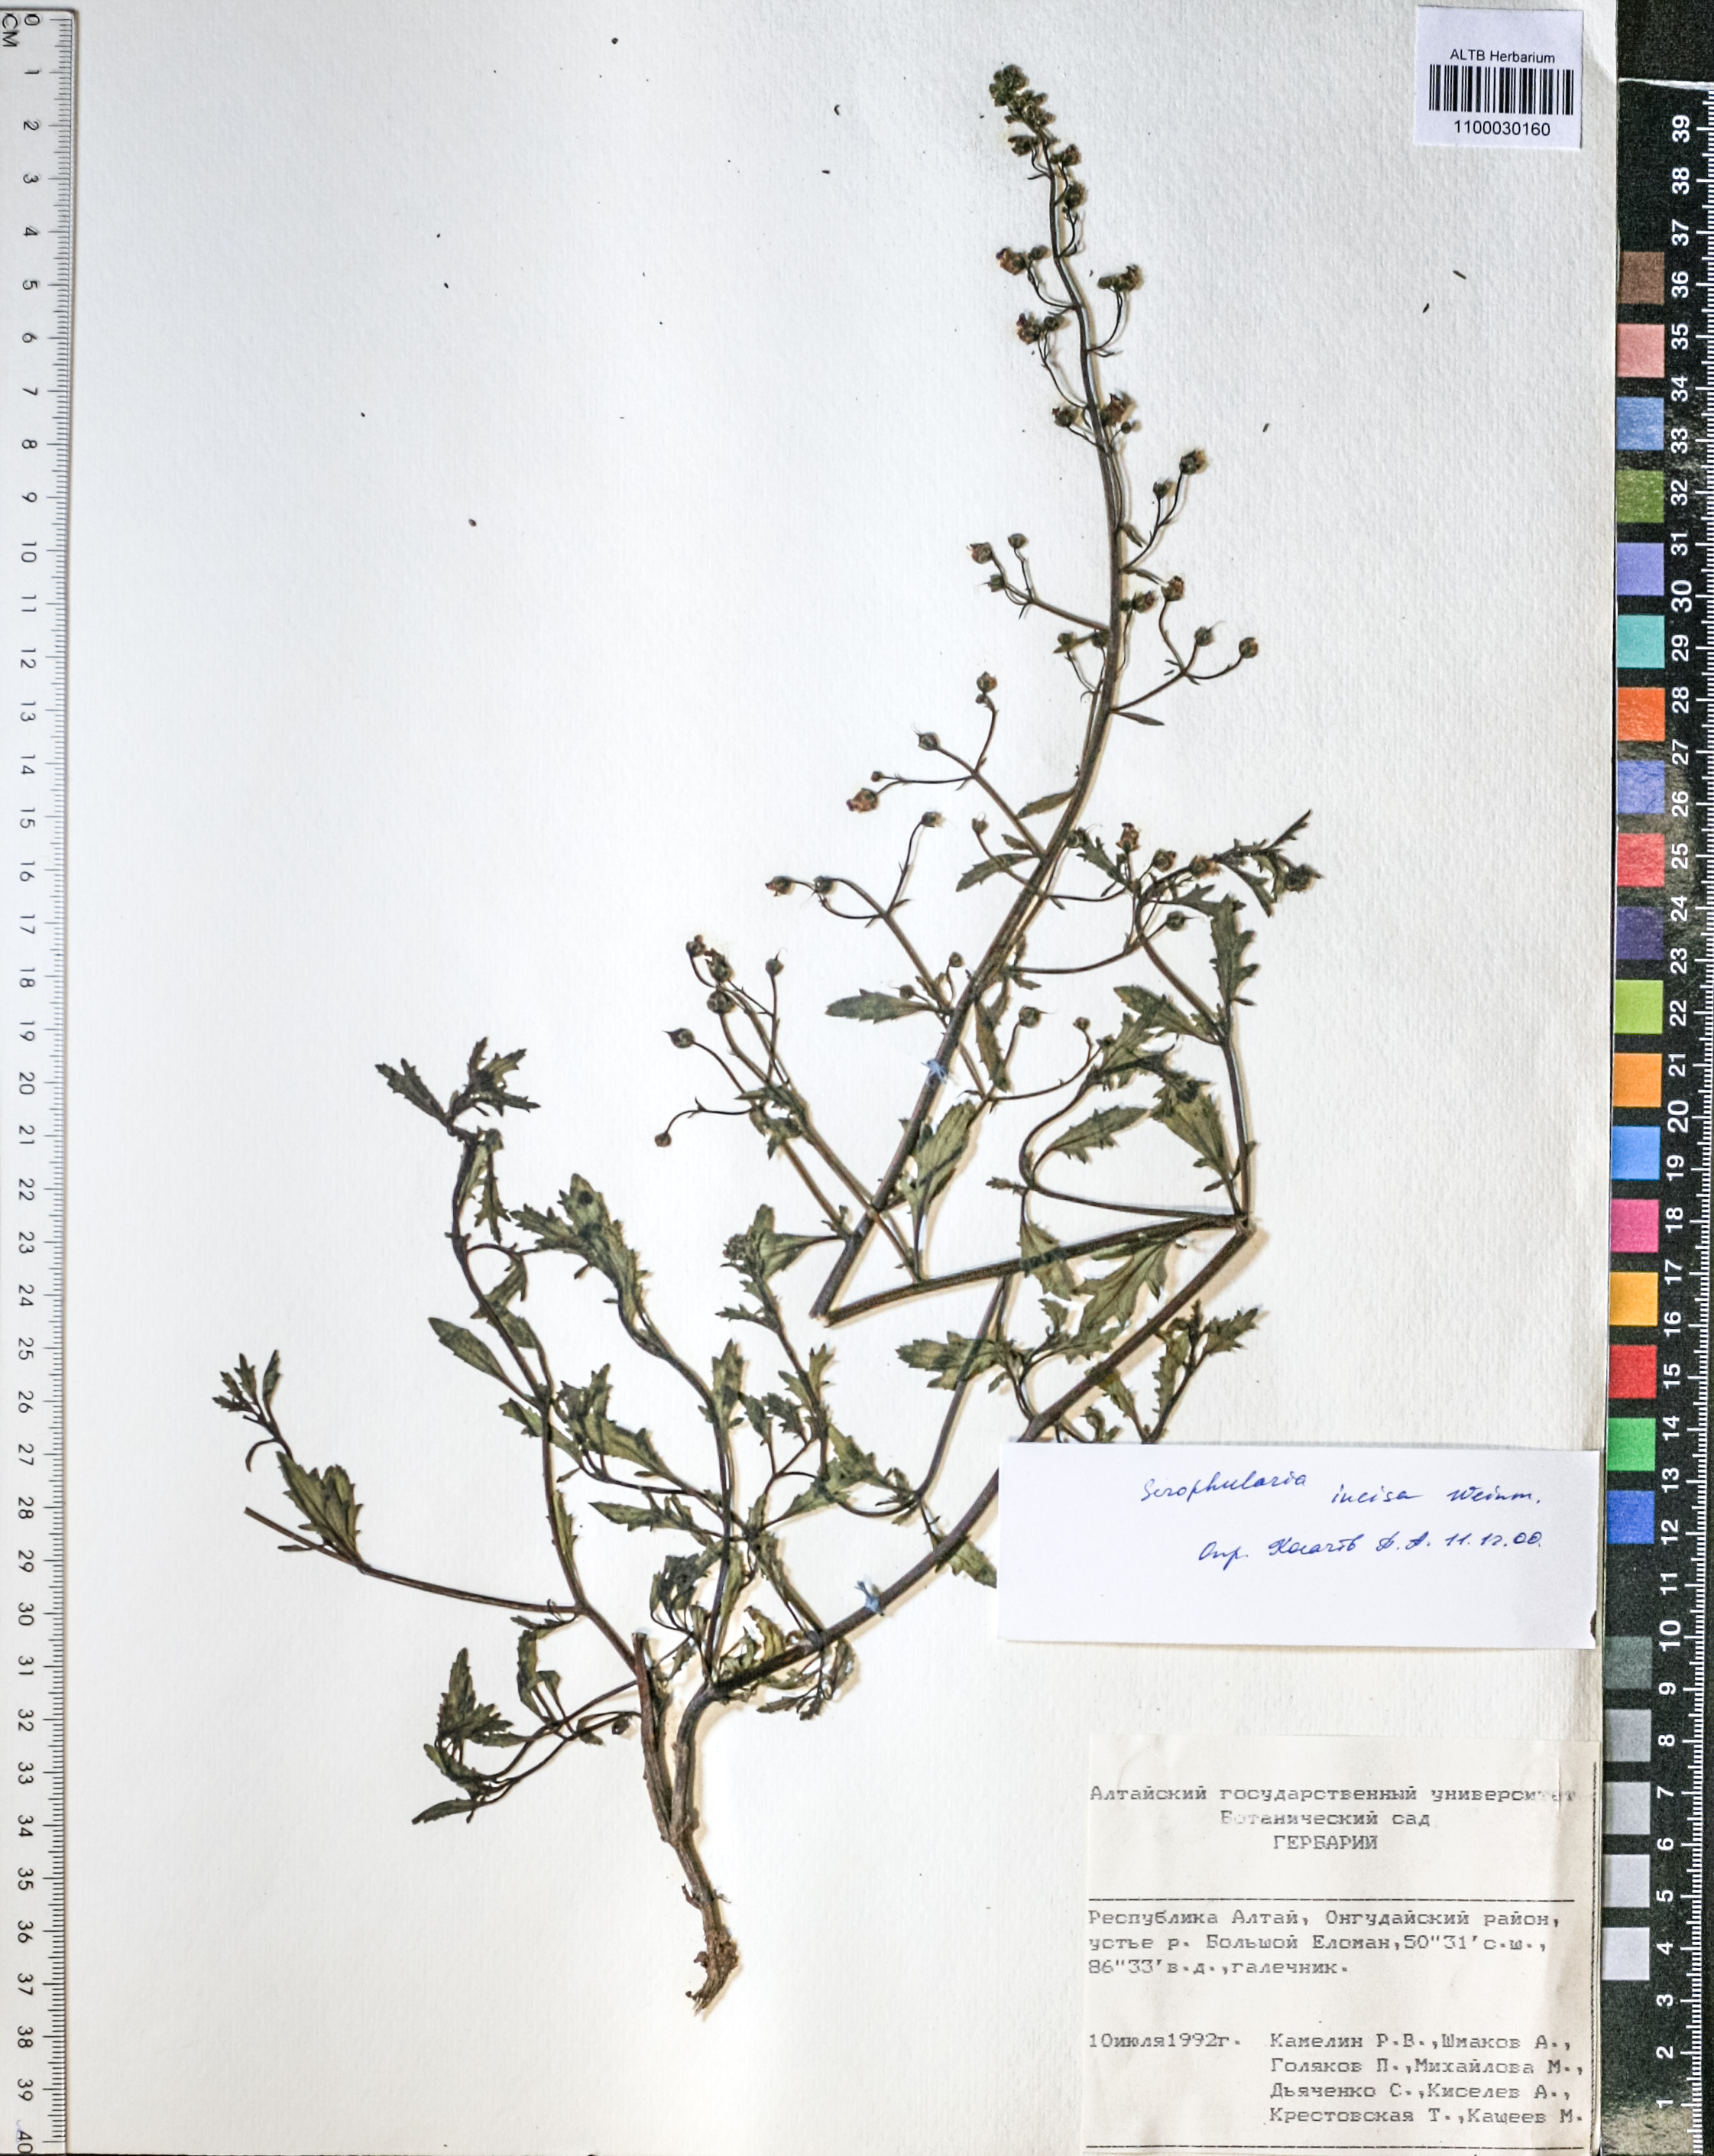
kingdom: Plantae
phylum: Tracheophyta
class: Magnoliopsida
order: Lamiales
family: Scrophulariaceae
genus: Scrophularia
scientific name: Scrophularia incisa
